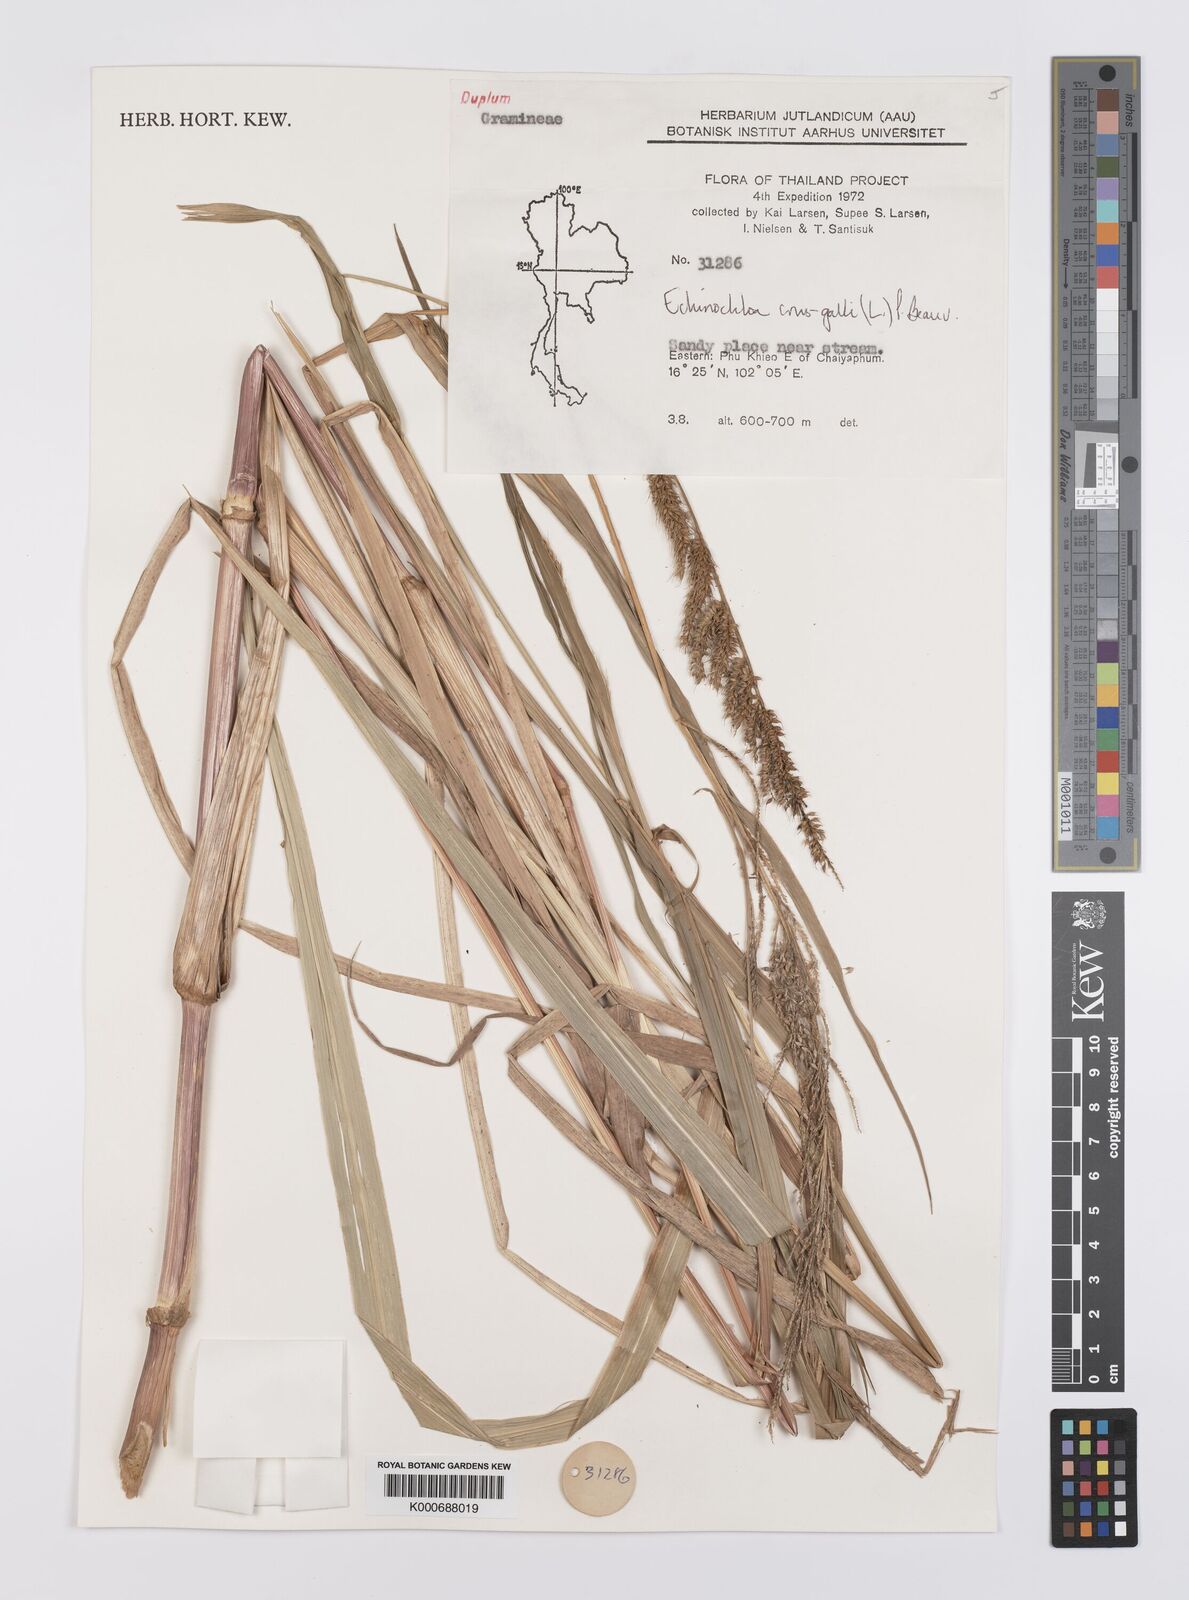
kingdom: Plantae
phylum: Tracheophyta
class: Liliopsida
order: Poales
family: Poaceae
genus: Echinochloa
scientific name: Echinochloa crus-galli
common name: Cockspur
